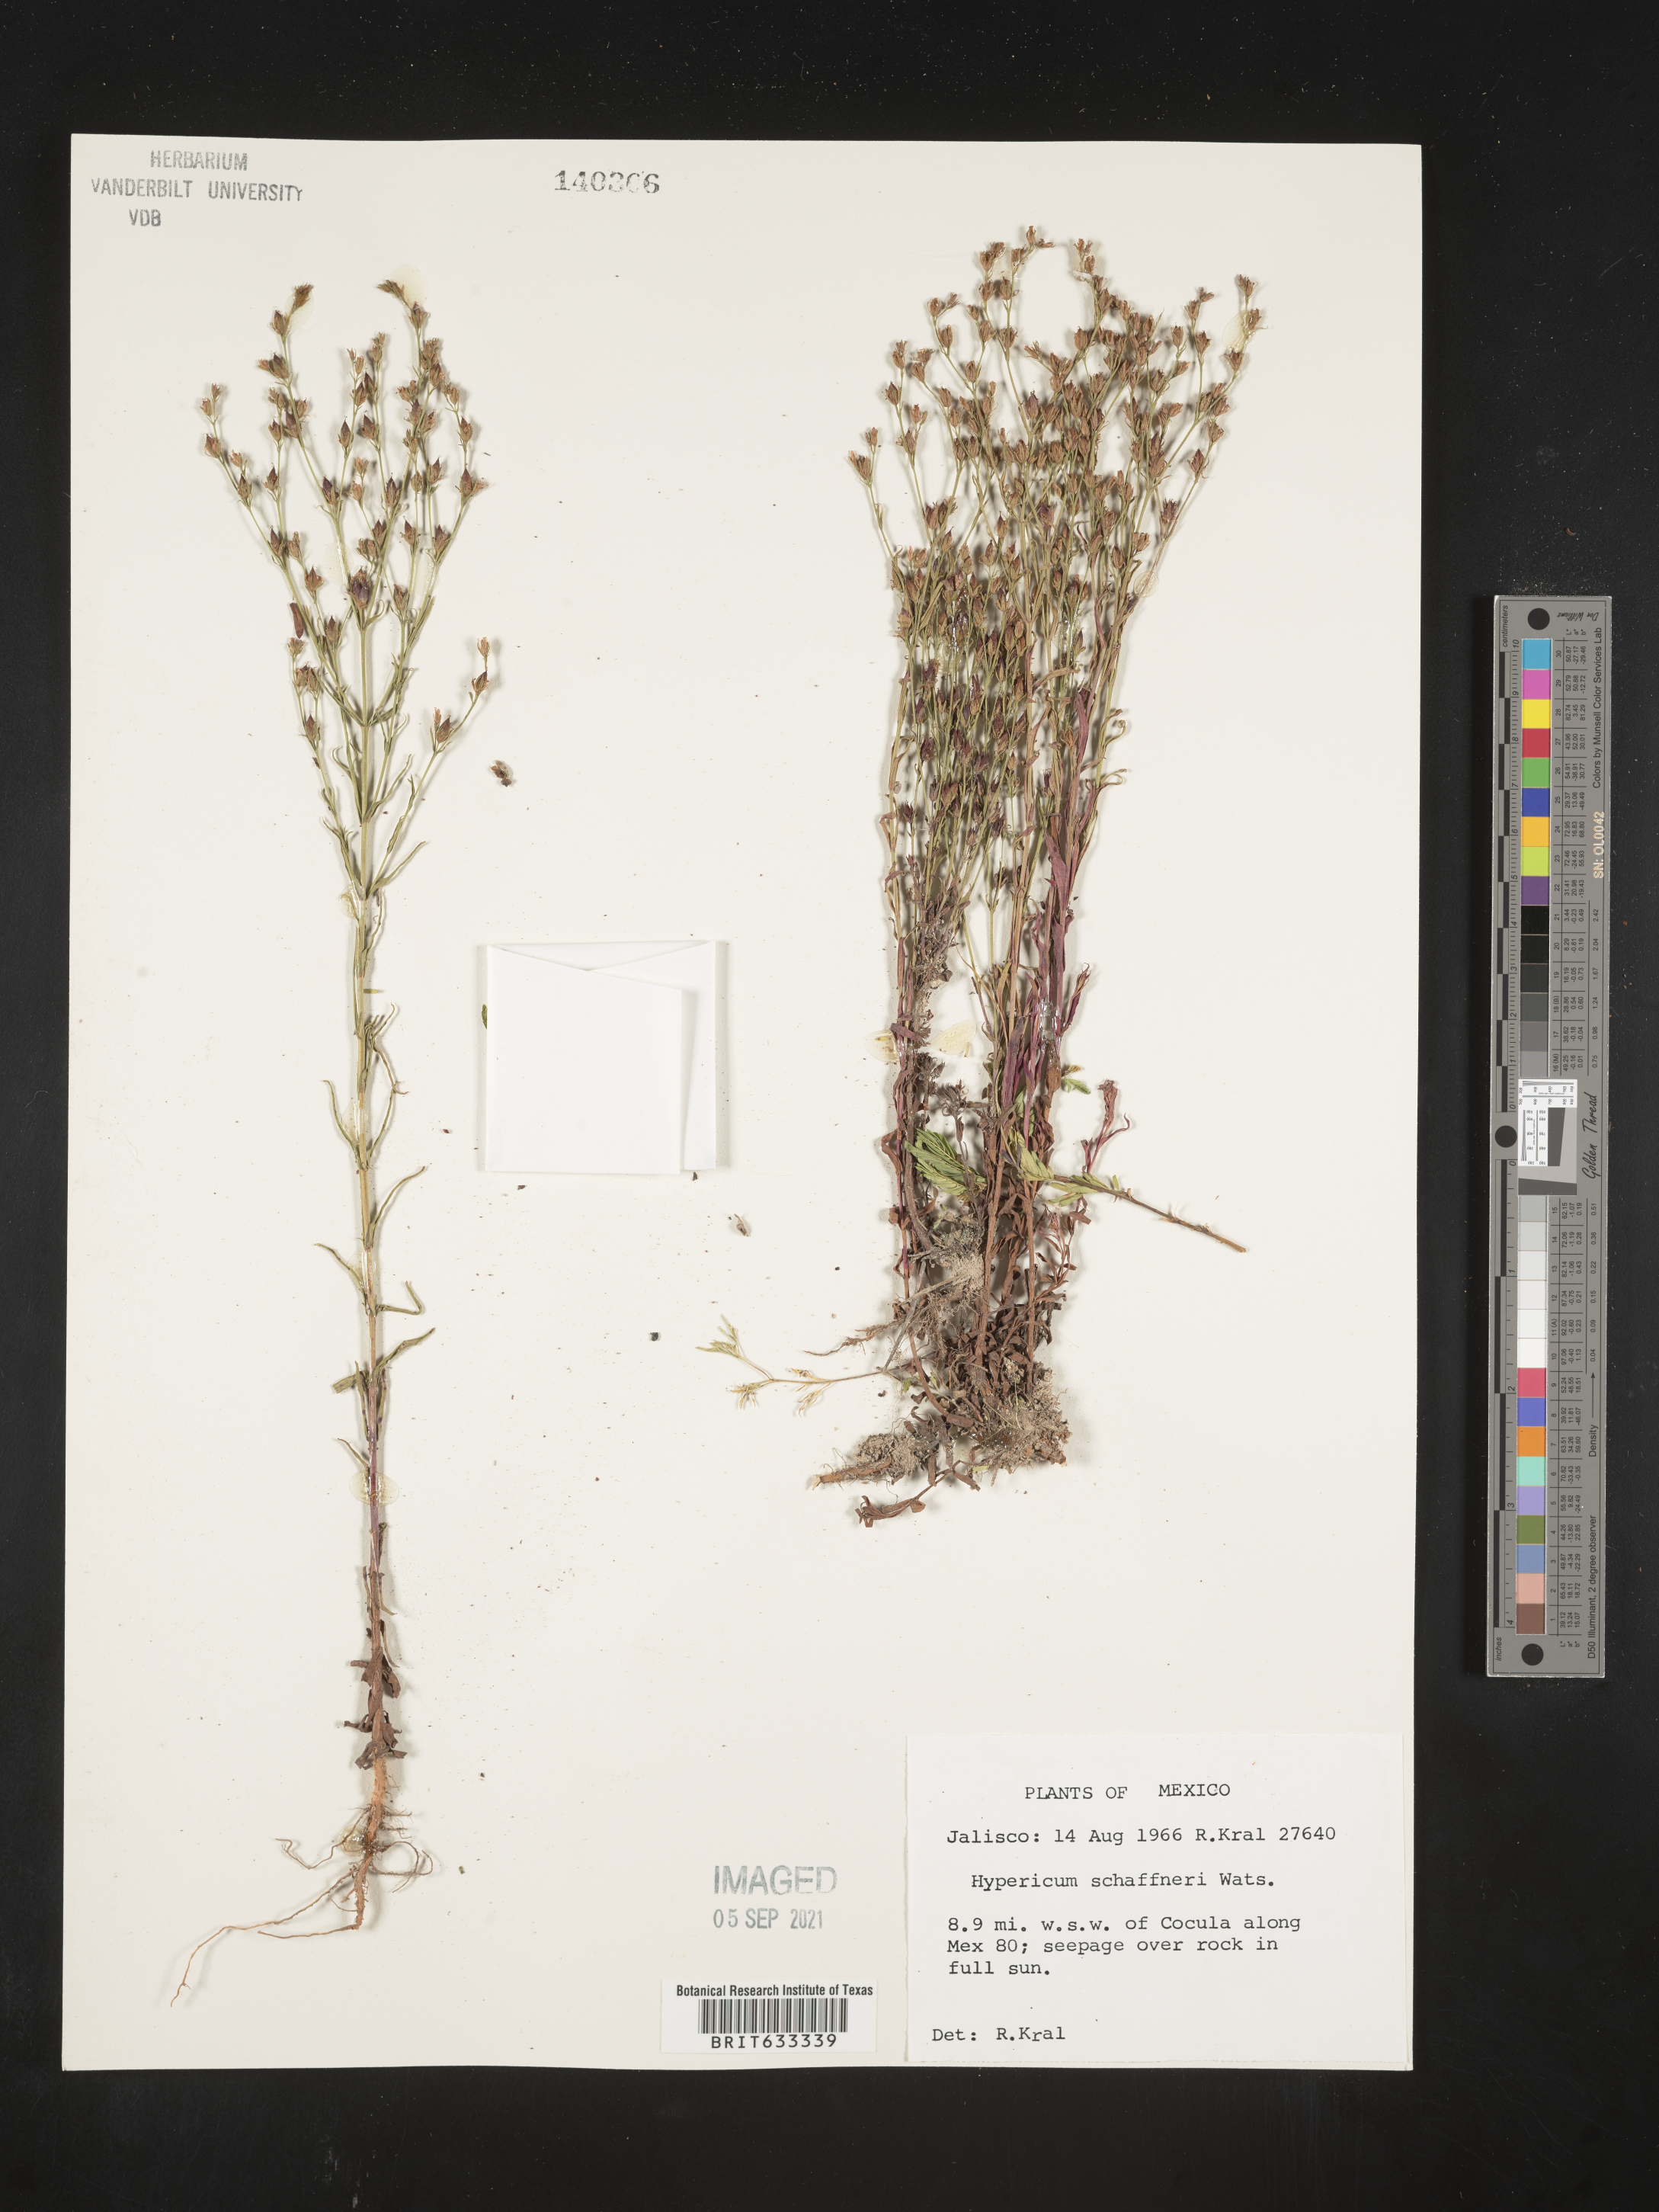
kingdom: Plantae
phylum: Tracheophyta
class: Magnoliopsida
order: Malpighiales
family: Hypericaceae
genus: Hypericum
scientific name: Hypericum
